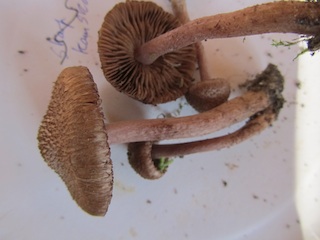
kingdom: Fungi
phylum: Basidiomycota
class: Agaricomycetes
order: Agaricales
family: Inocybaceae
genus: Inocybe
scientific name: Inocybe cincinnata
